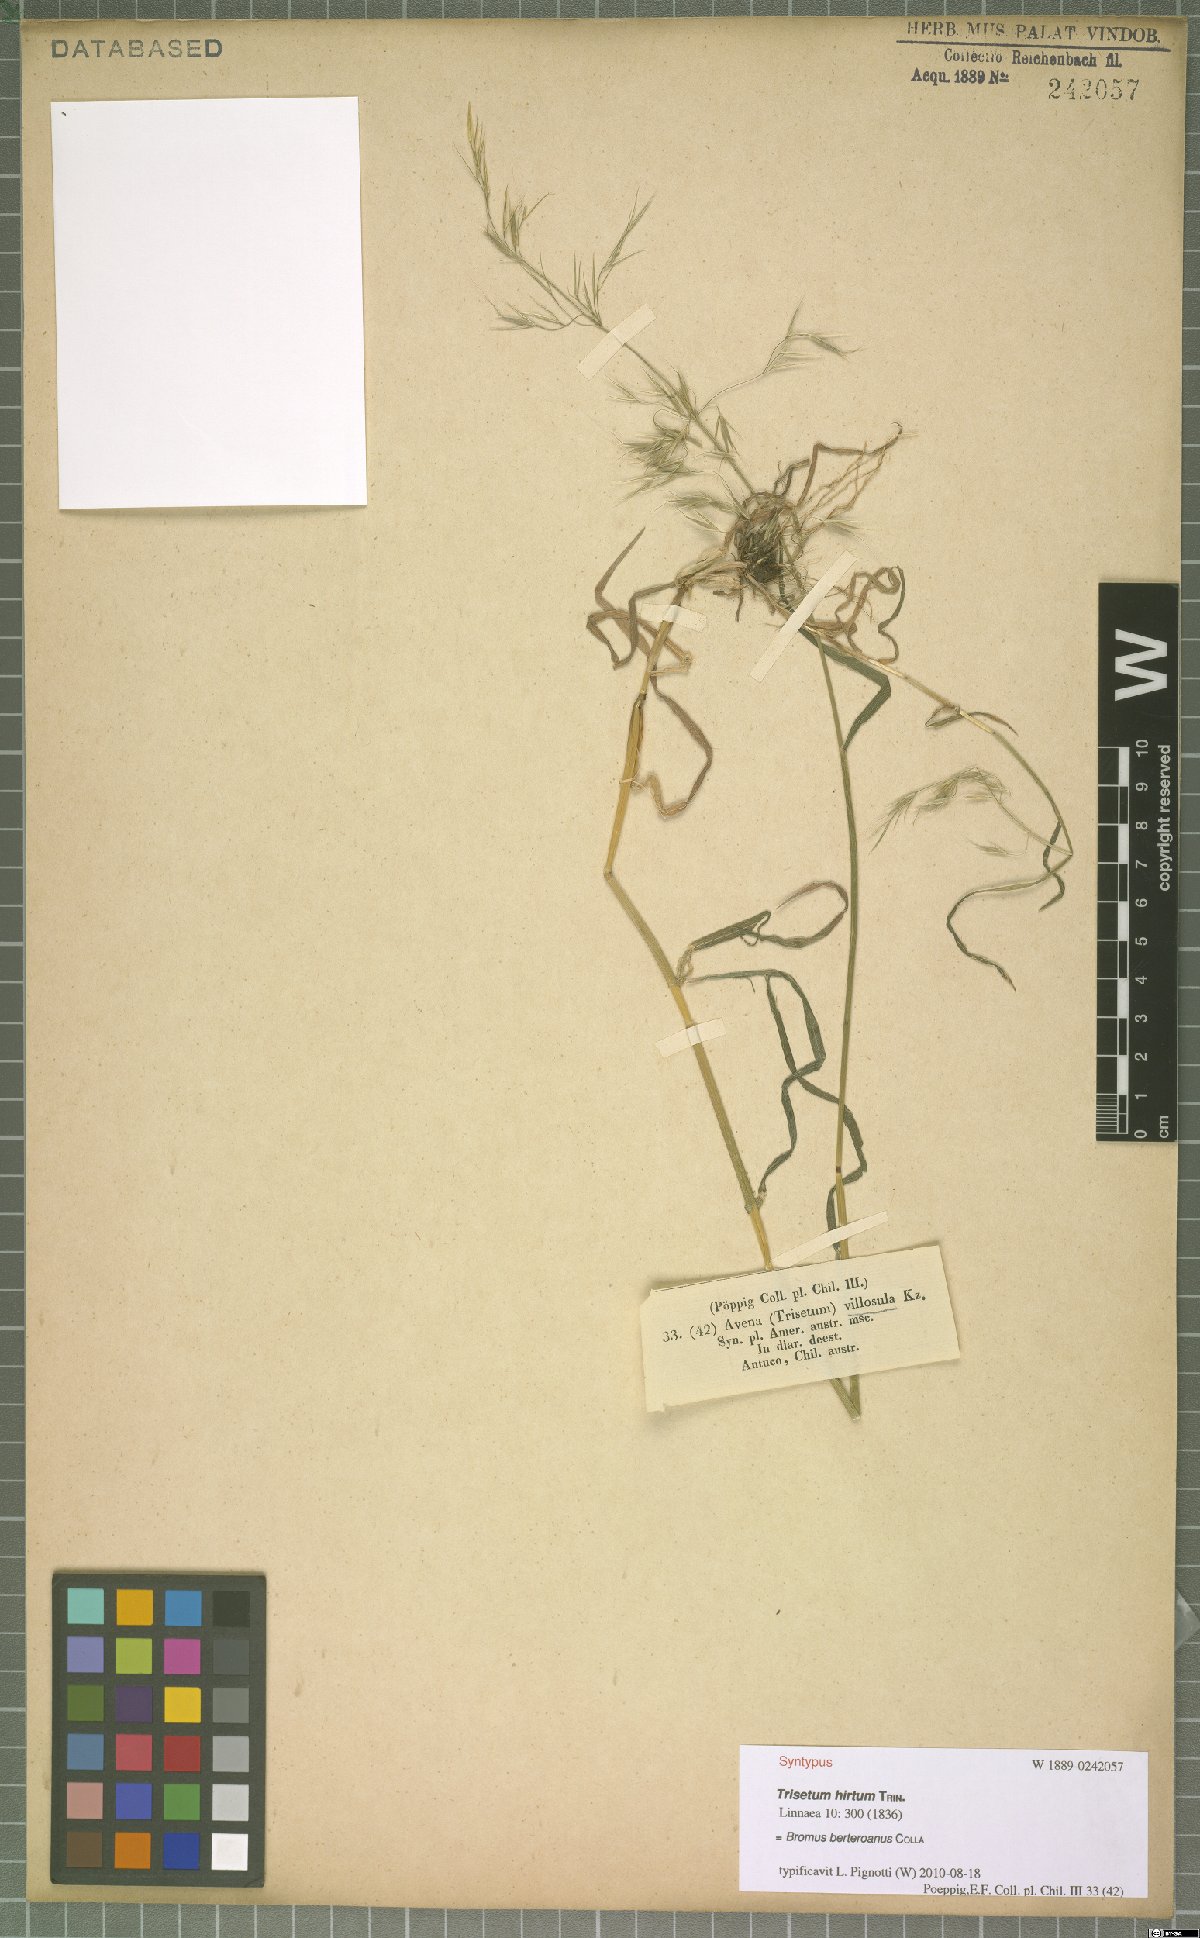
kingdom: Plantae
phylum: Tracheophyta
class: Liliopsida
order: Poales
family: Poaceae
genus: Bromus
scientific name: Bromus berteroanus
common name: Chilean chess
